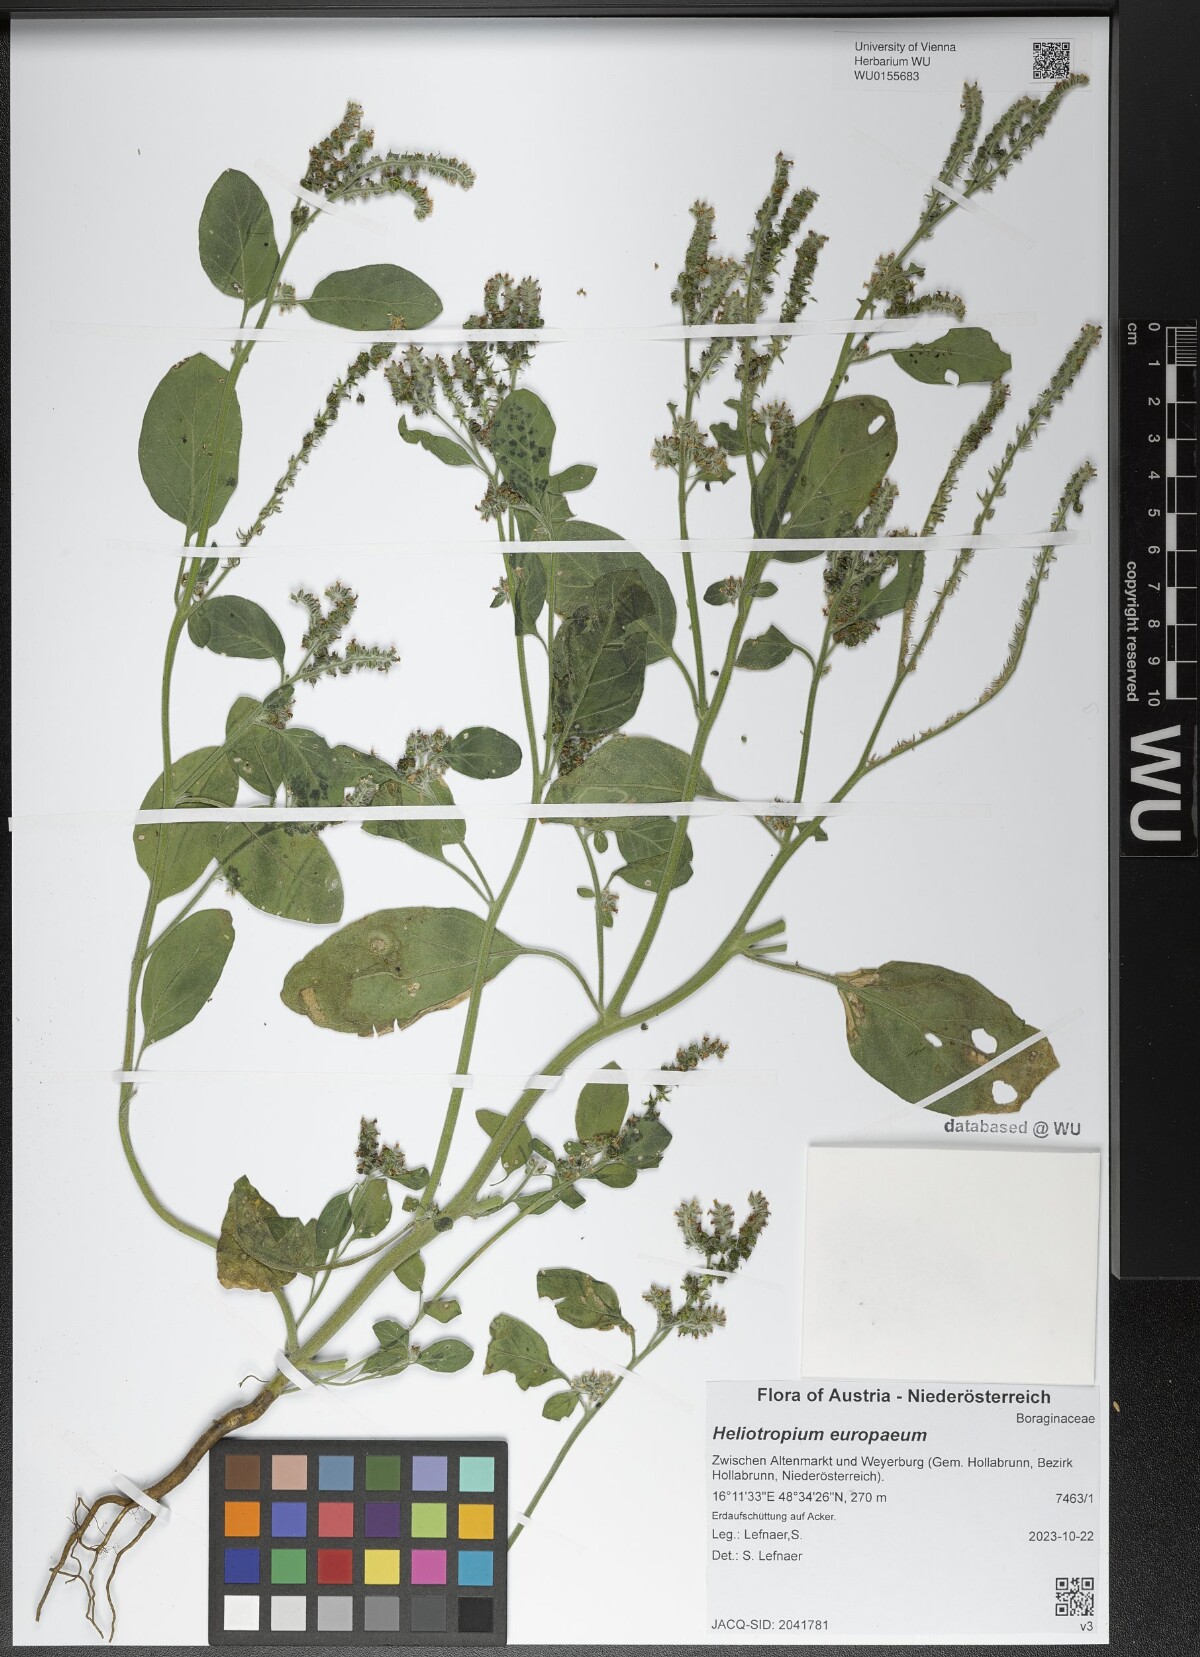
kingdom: Plantae
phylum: Tracheophyta
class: Magnoliopsida
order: Boraginales
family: Heliotropiaceae
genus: Heliotropium
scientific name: Heliotropium europaeum
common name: European heliotrope
